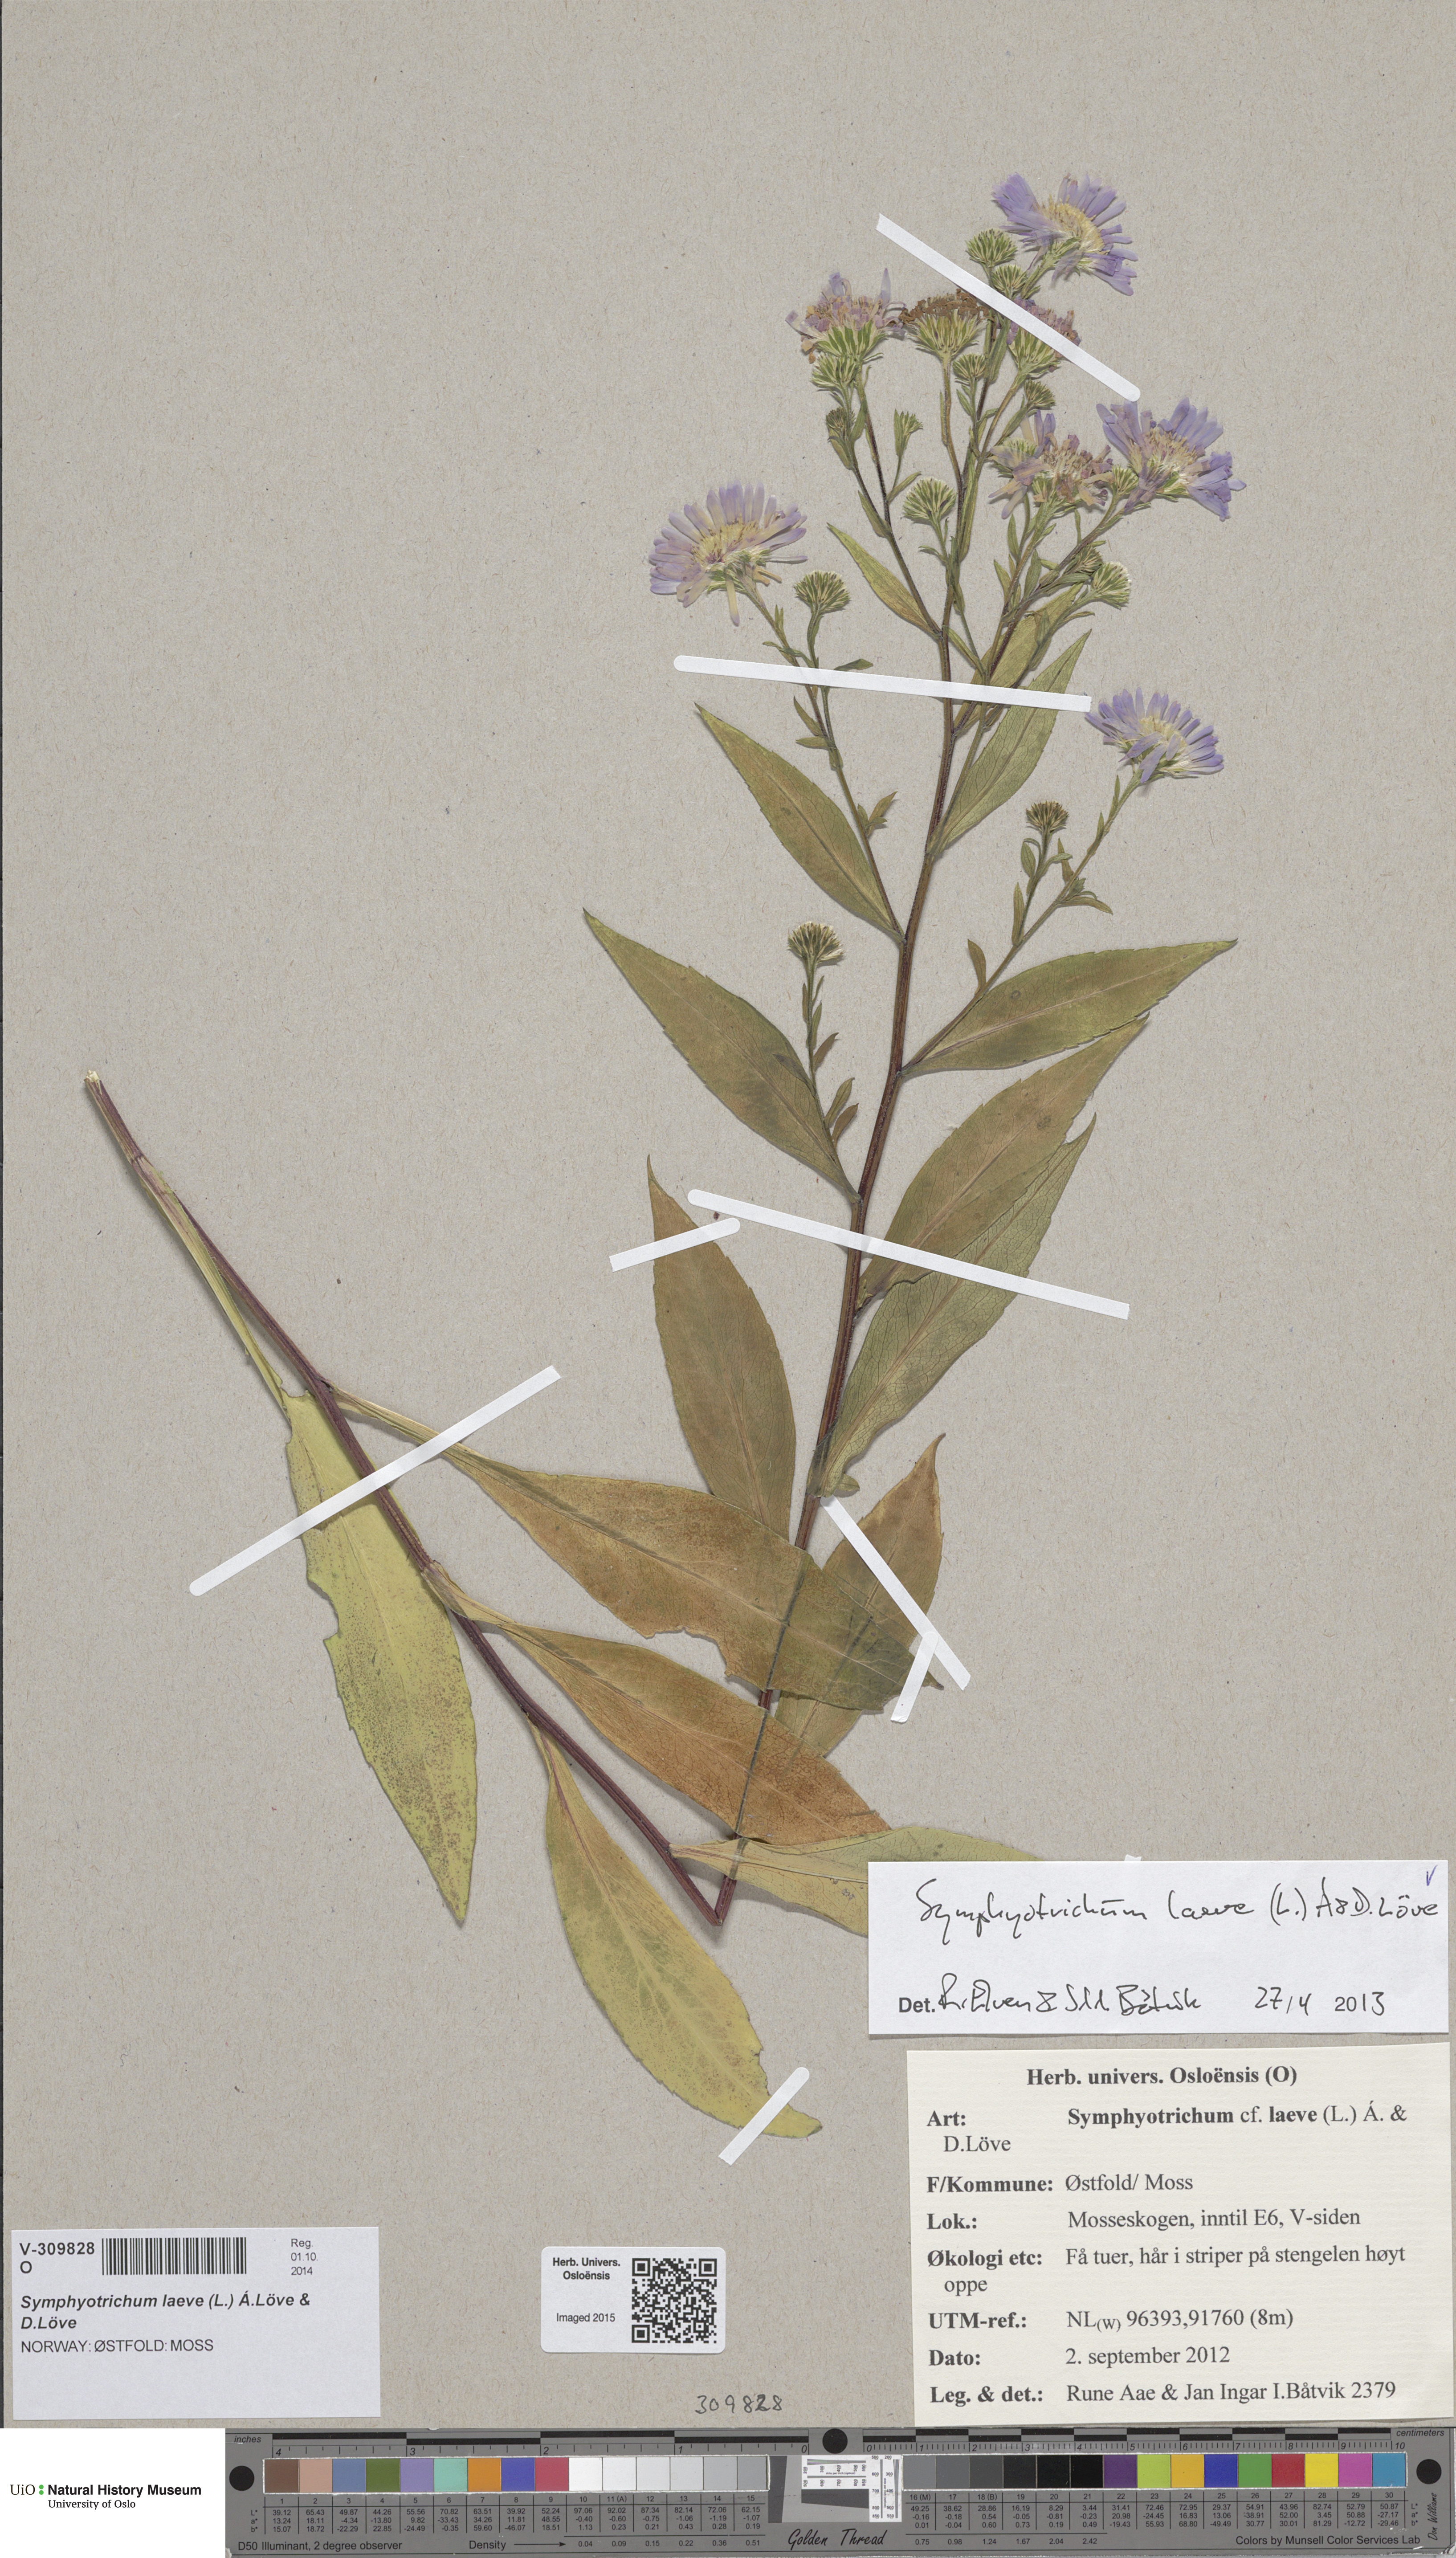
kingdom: Plantae
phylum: Tracheophyta
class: Magnoliopsida
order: Asterales
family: Asteraceae
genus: Symphyotrichum
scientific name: Symphyotrichum versicolor
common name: Late michaelmas daisy
